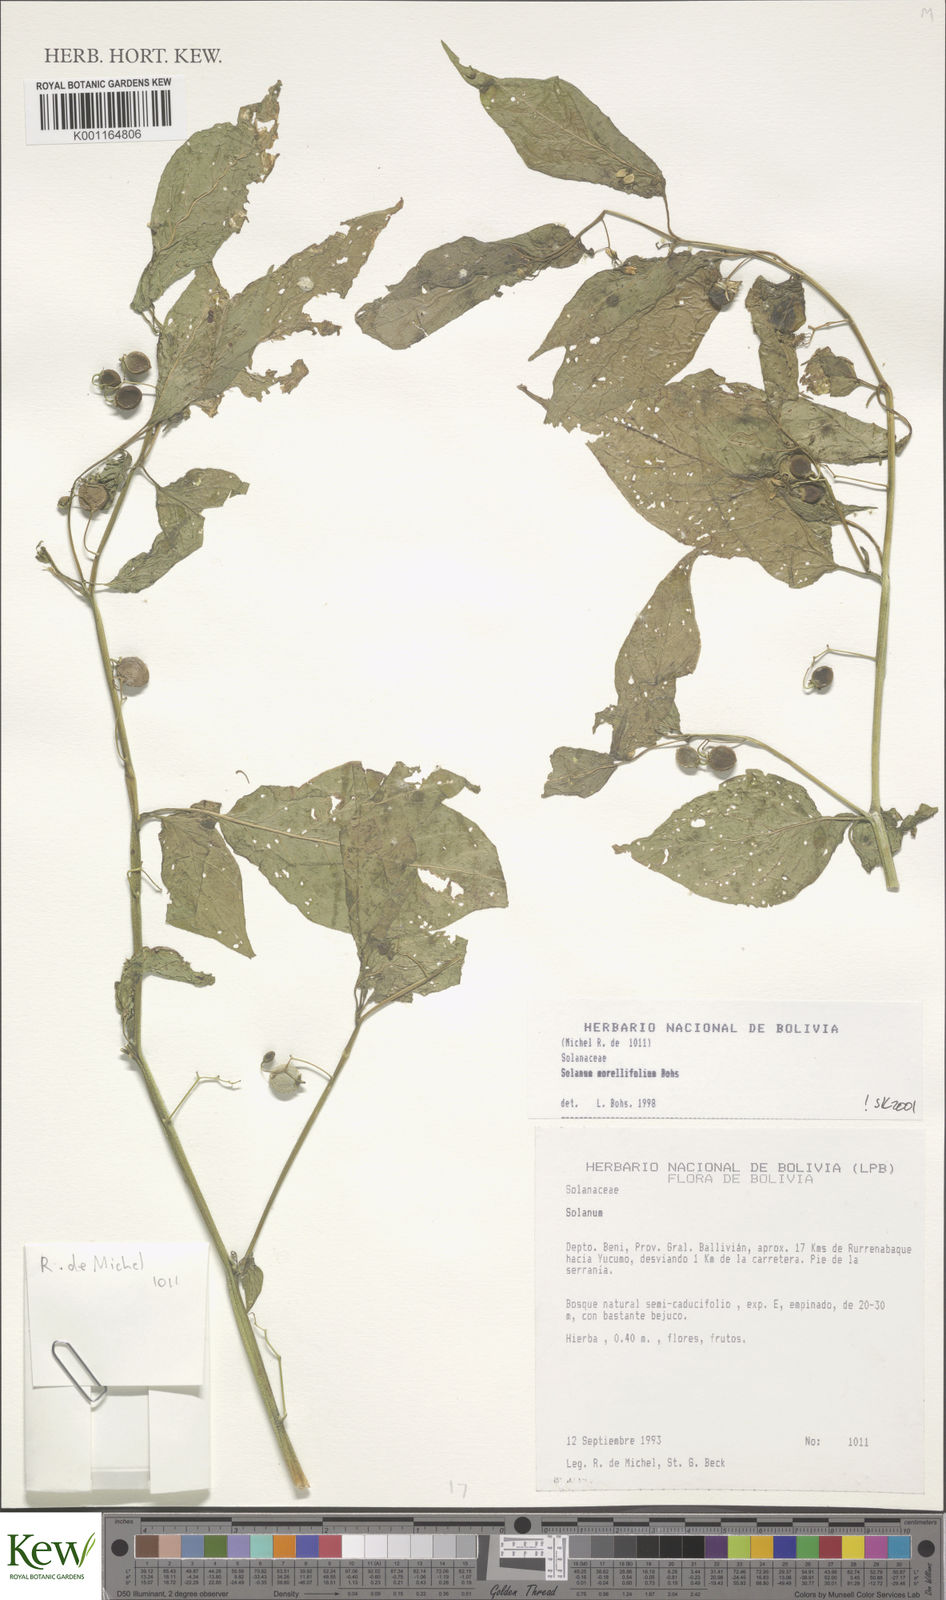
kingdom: Plantae
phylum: Tracheophyta
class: Magnoliopsida
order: Solanales
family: Solanaceae
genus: Solanum
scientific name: Solanum morellifolium
